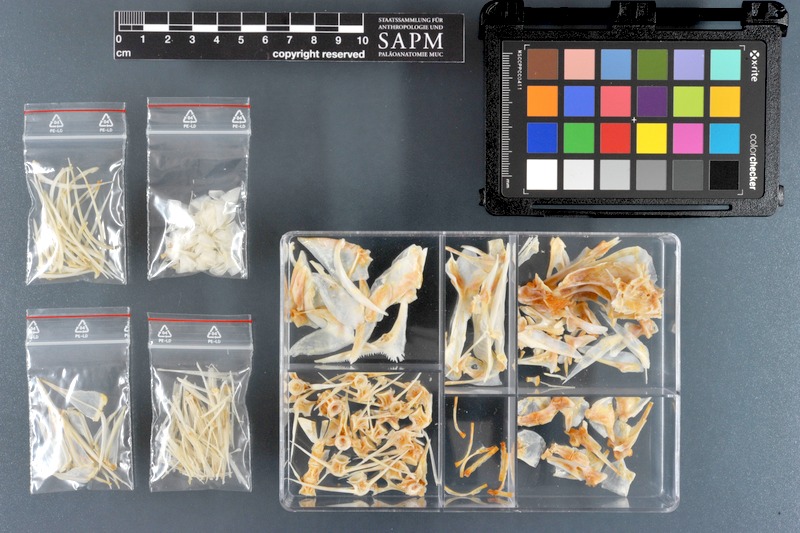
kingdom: Animalia
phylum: Chordata
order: Perciformes
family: Nemipteridae
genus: Scolopsis
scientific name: Scolopsis taeniata
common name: Blackstreaked monocle bream
